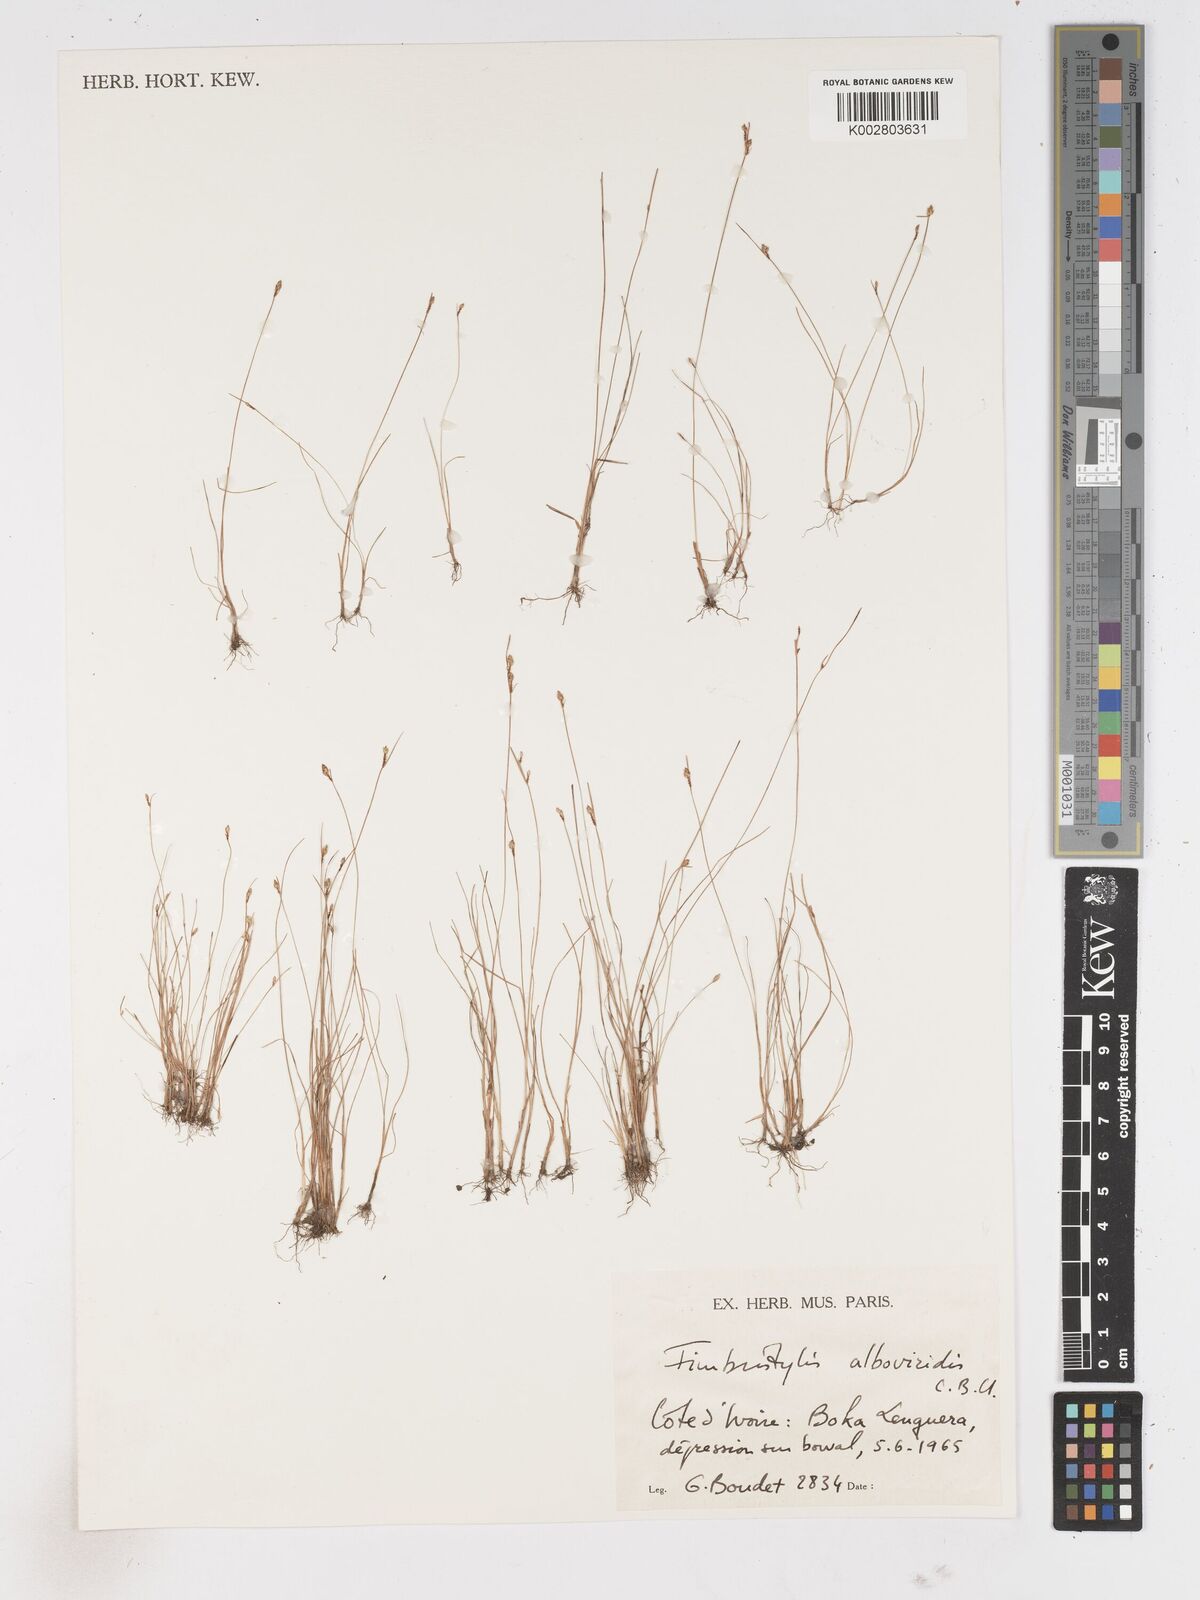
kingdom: Plantae
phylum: Tracheophyta
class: Liliopsida
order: Poales
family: Cyperaceae
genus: Fimbristylis
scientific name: Fimbristylis alboviridis
